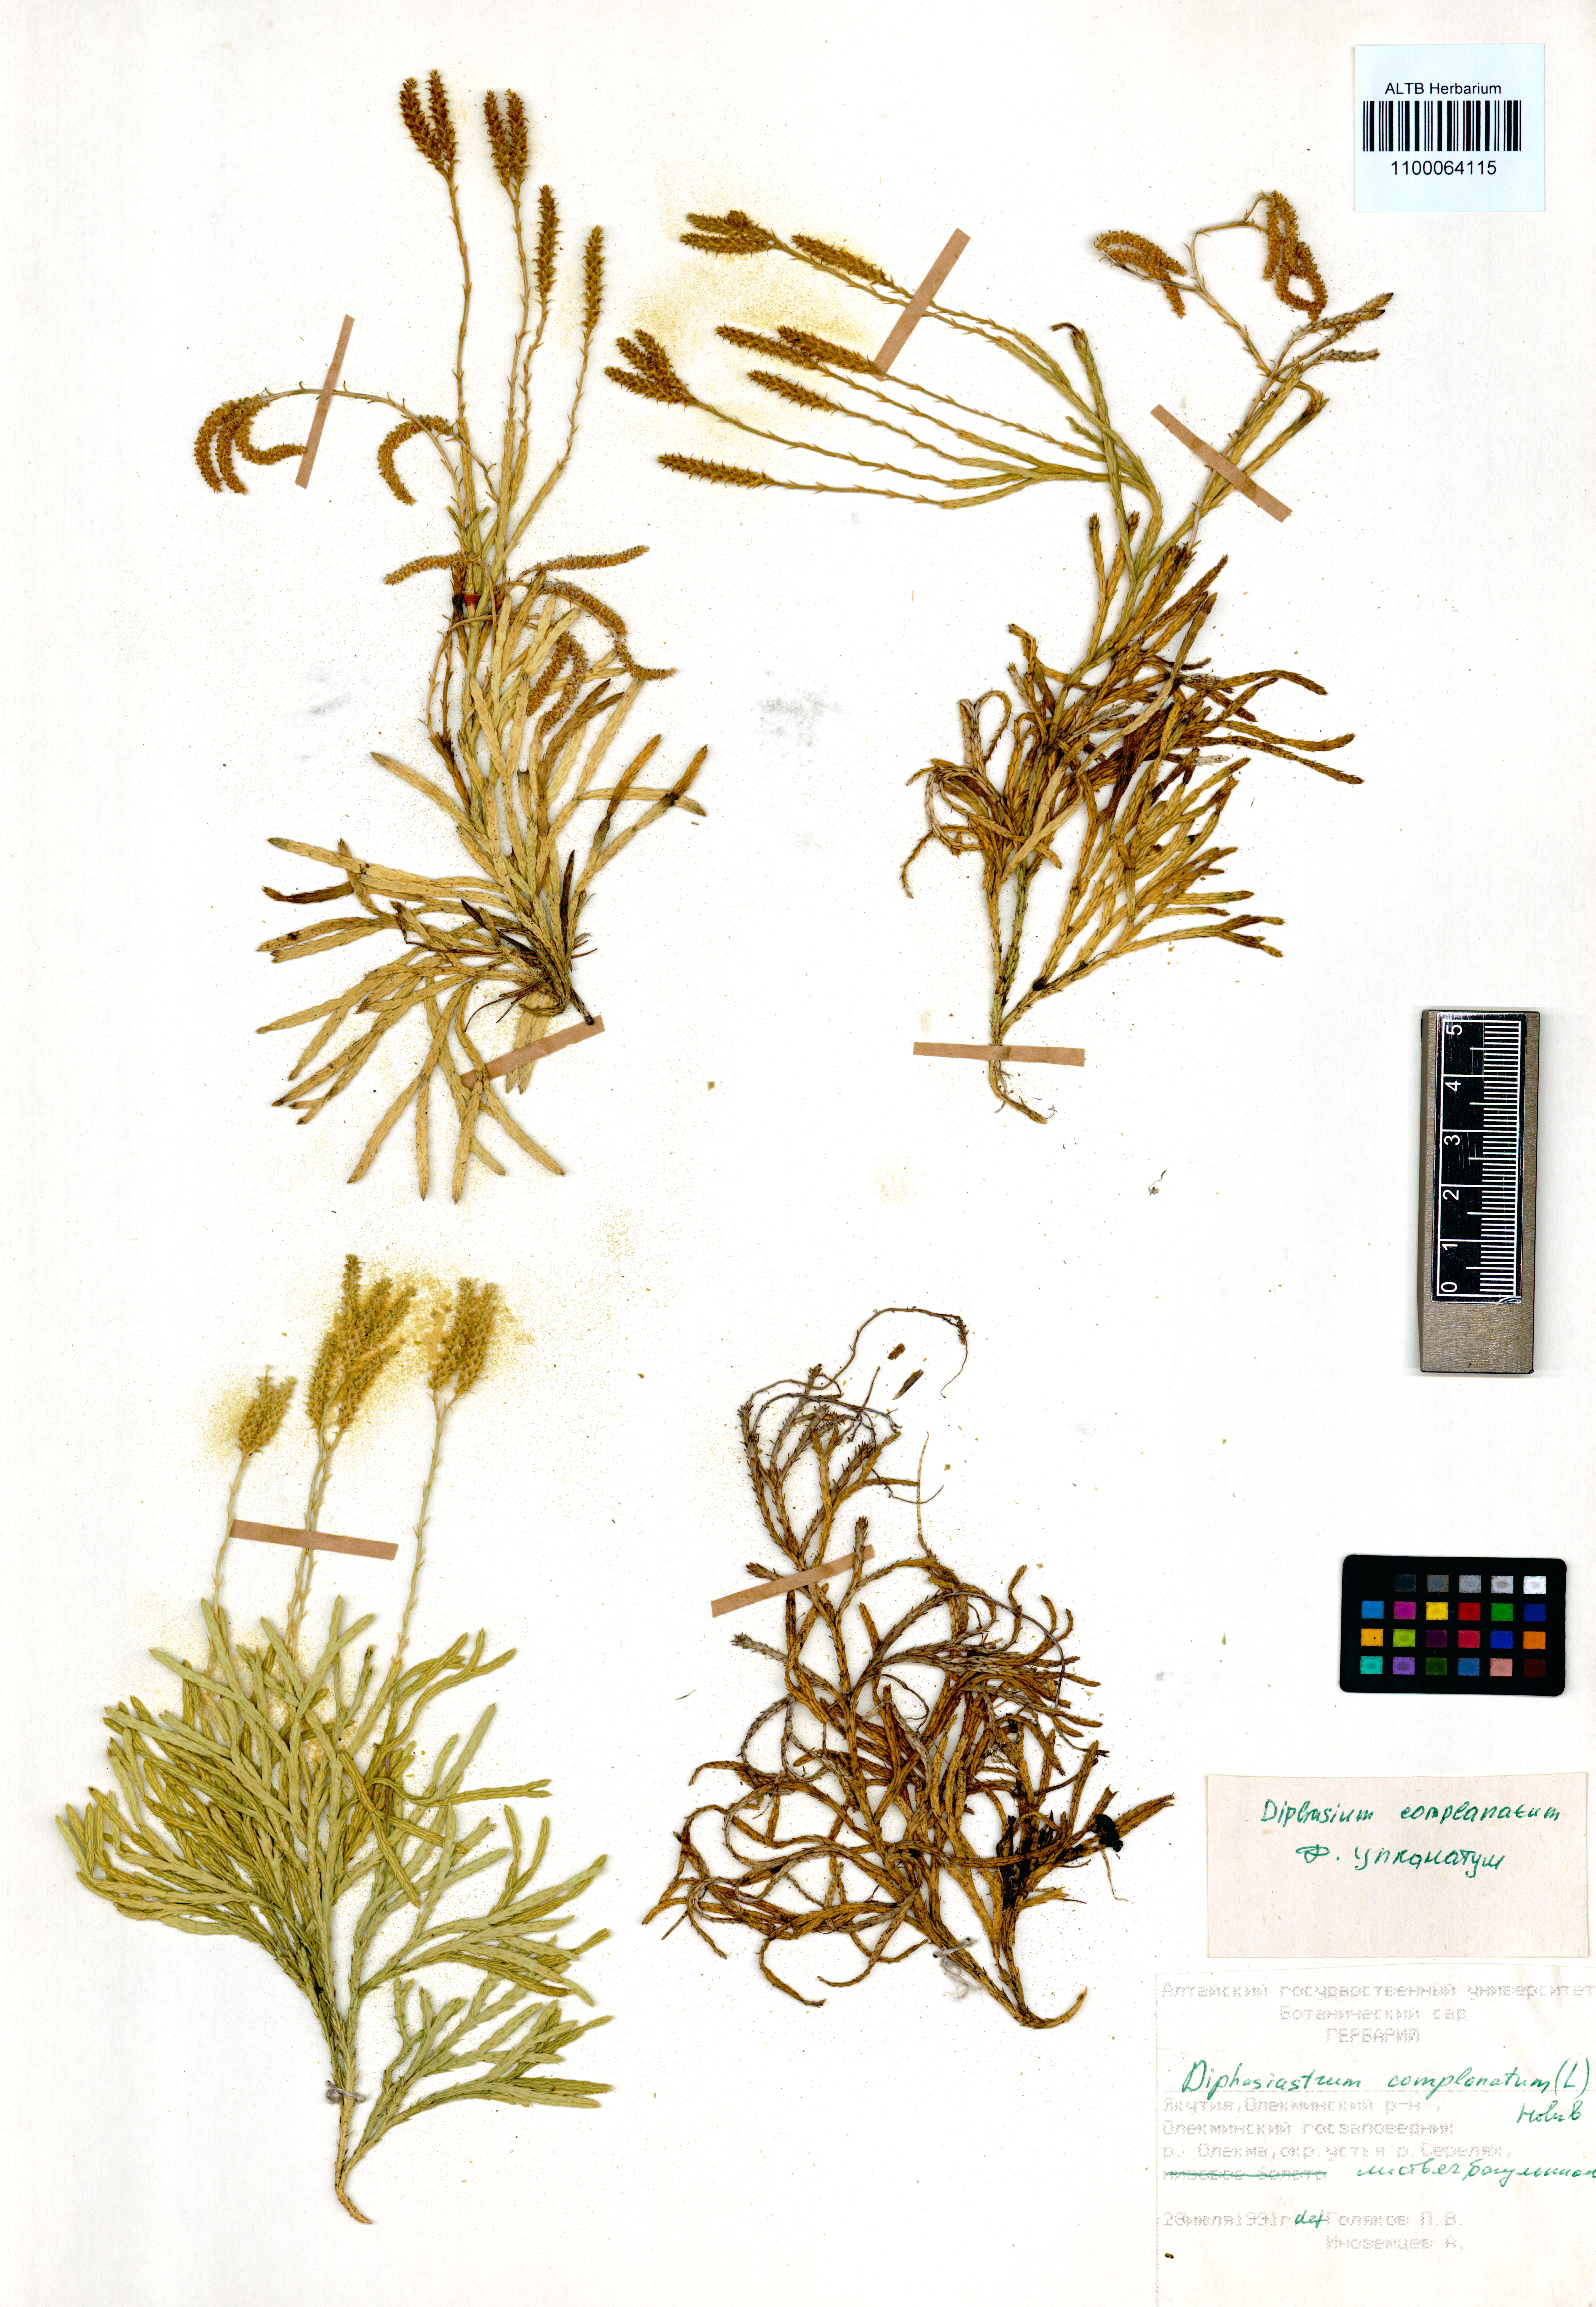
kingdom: Plantae
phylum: Tracheophyta
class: Lycopodiopsida
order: Lycopodiales
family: Lycopodiaceae
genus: Diphasiastrum
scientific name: Diphasiastrum complanatum
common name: Northern running-pine
